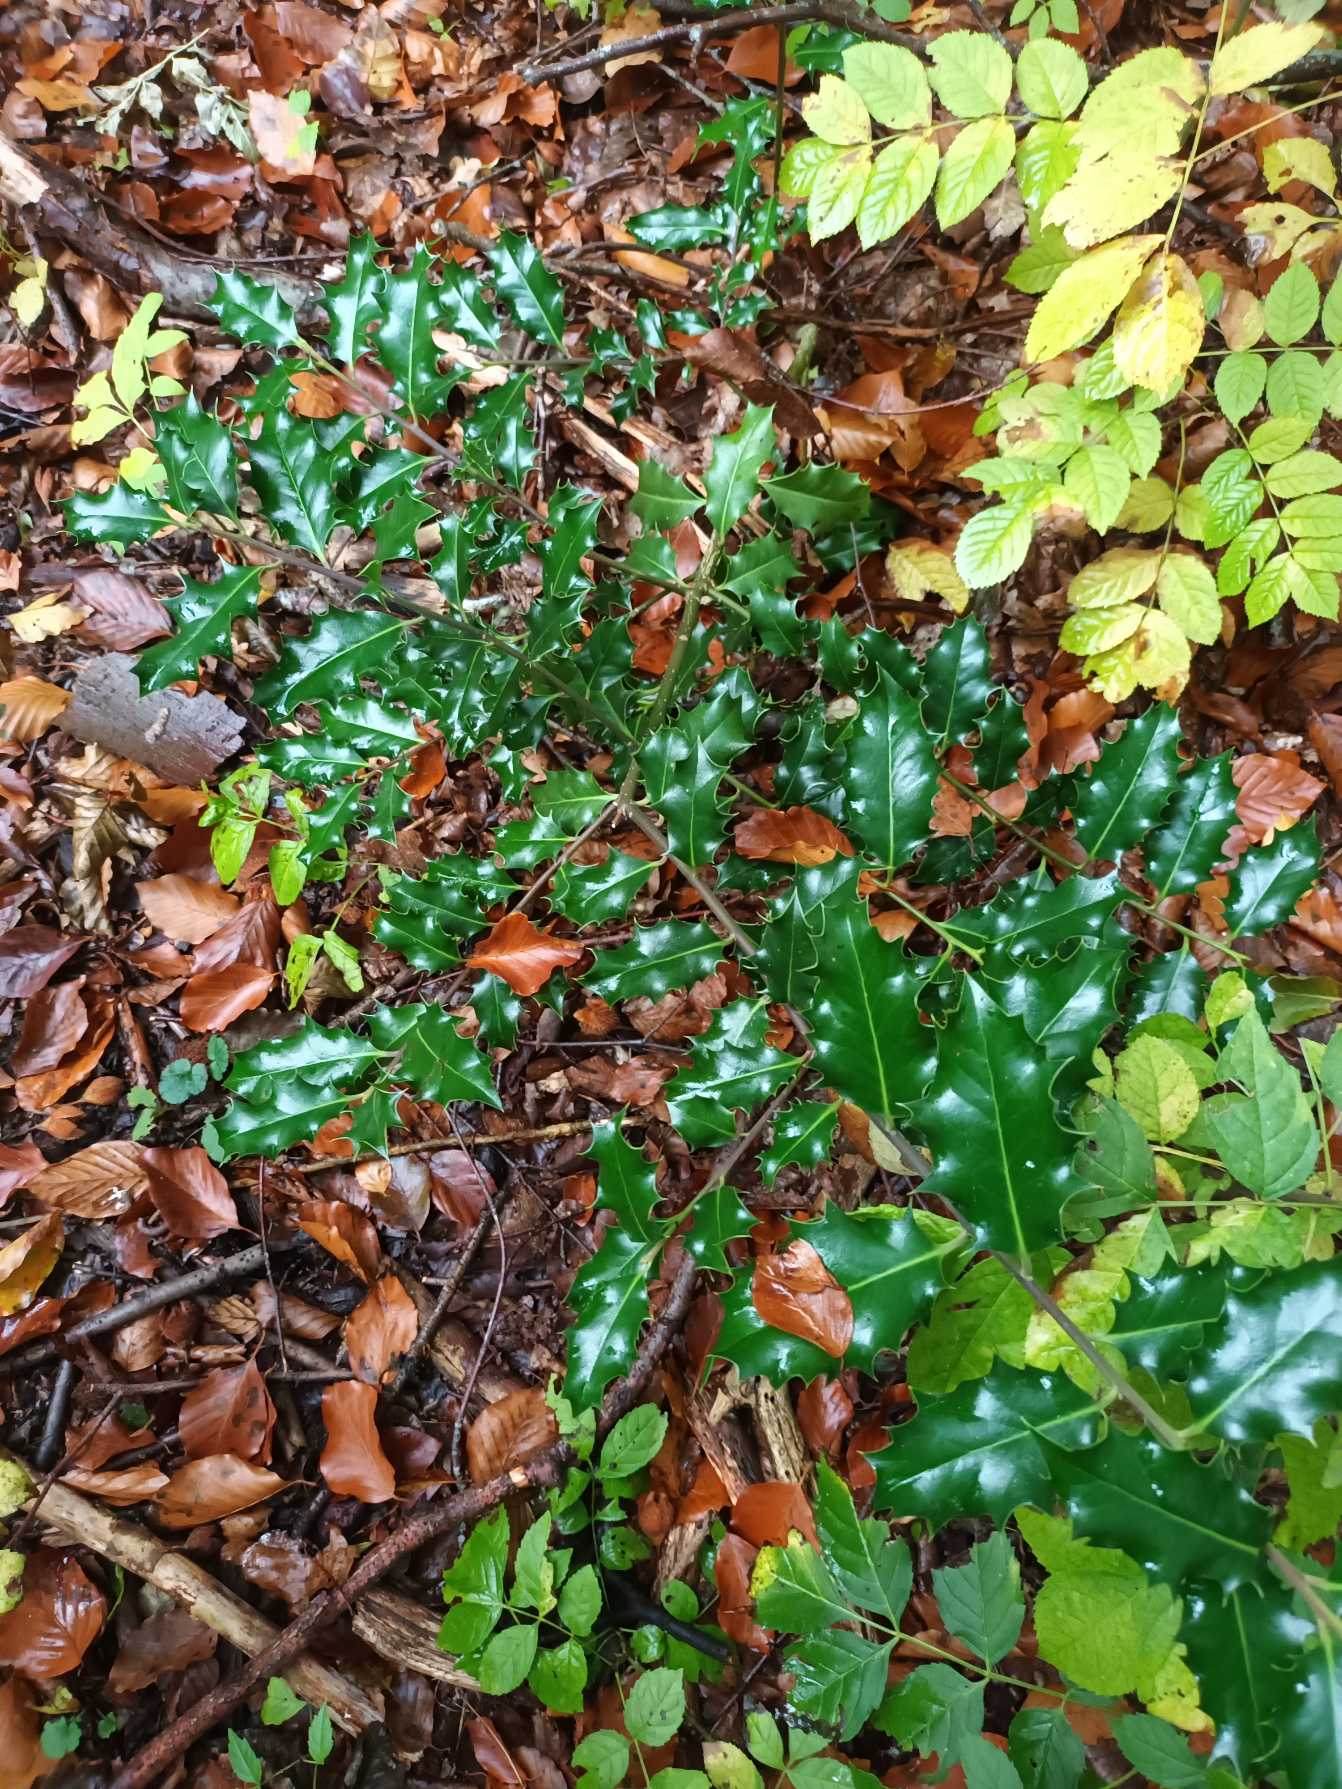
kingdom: Plantae
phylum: Tracheophyta
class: Magnoliopsida
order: Aquifoliales
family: Aquifoliaceae
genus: Ilex
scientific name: Ilex aquifolium
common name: Kristtorn
